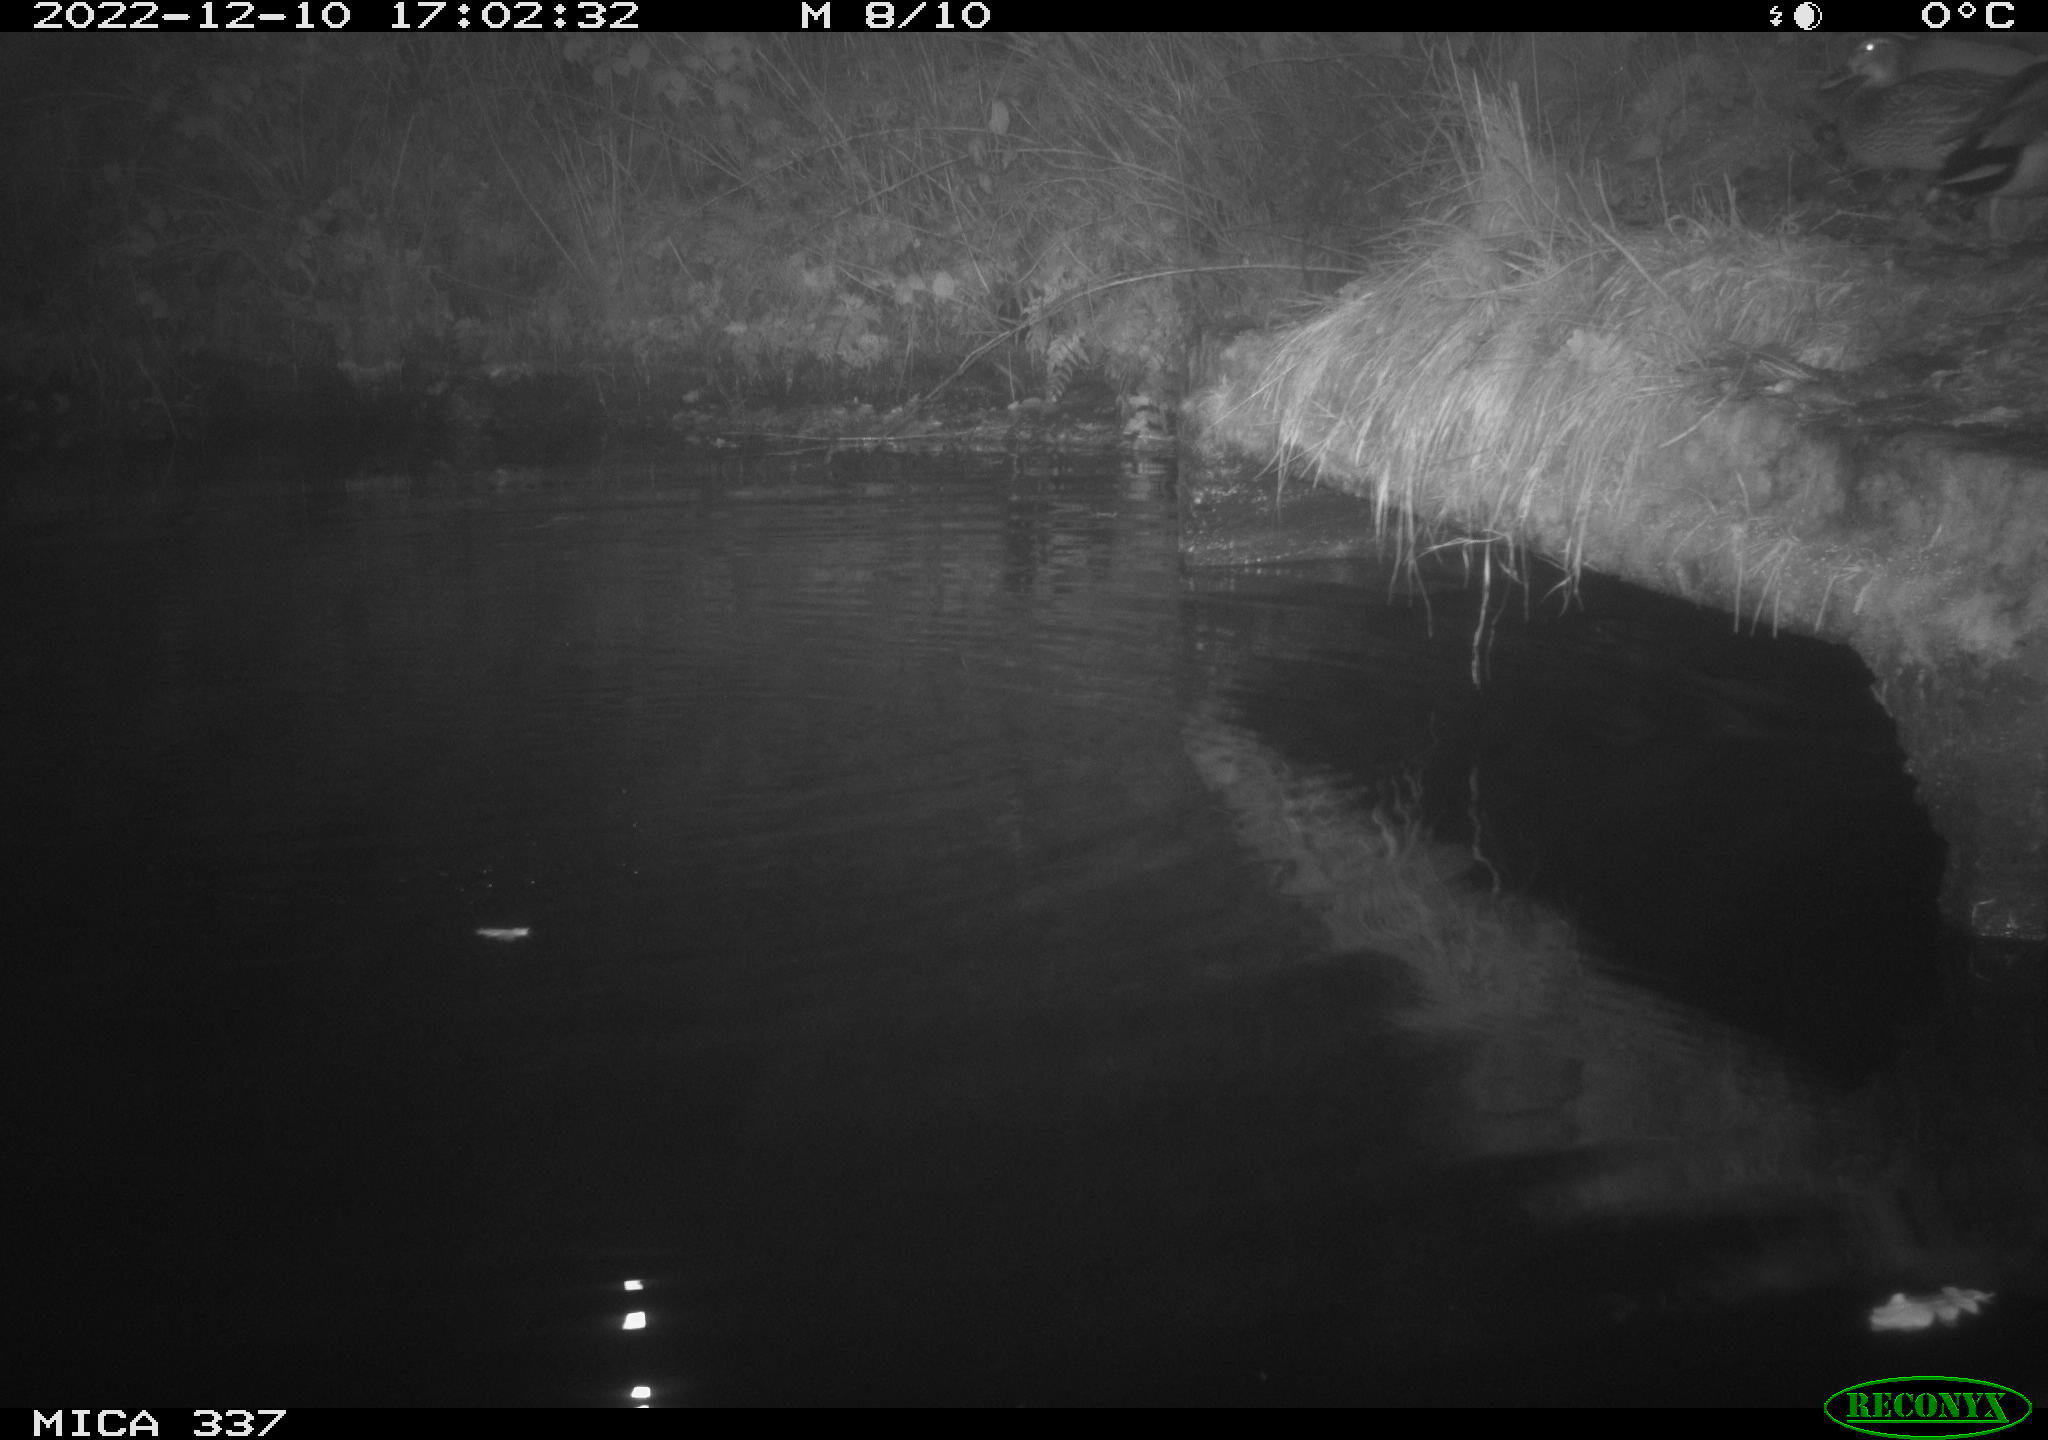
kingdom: Animalia
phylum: Chordata
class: Aves
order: Anseriformes
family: Anatidae
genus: Anas
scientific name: Anas
